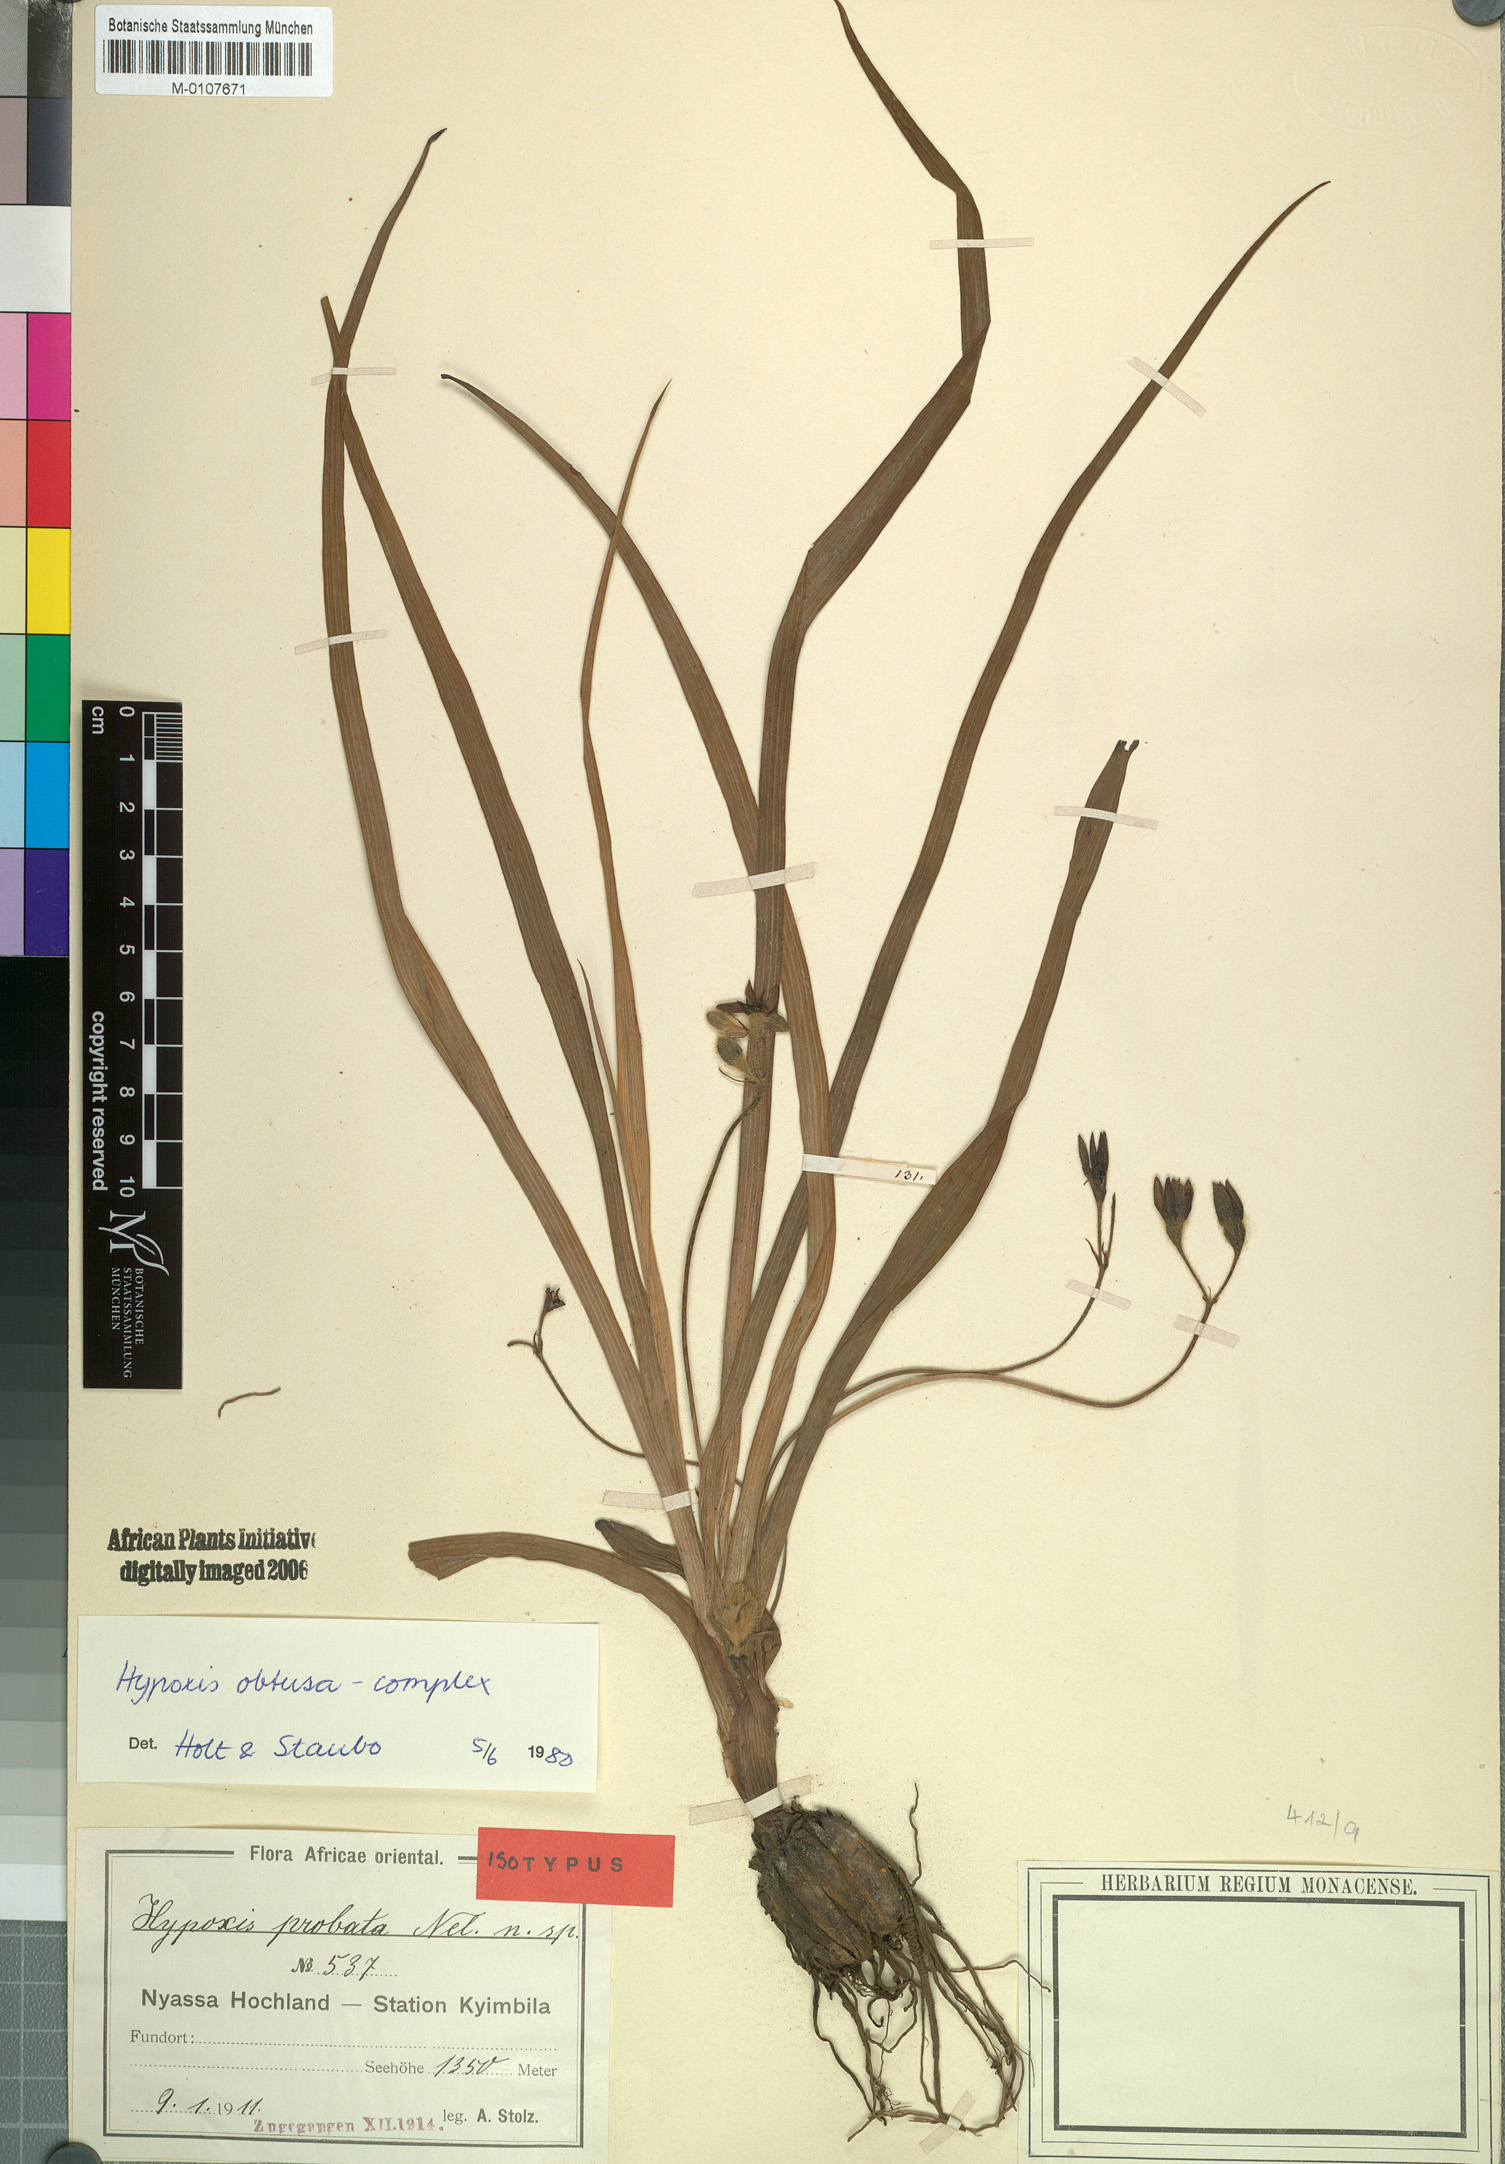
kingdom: Plantae
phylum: Tracheophyta
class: Liliopsida
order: Asparagales
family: Hypoxidaceae
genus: Hypoxis
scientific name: Hypoxis obtusa
